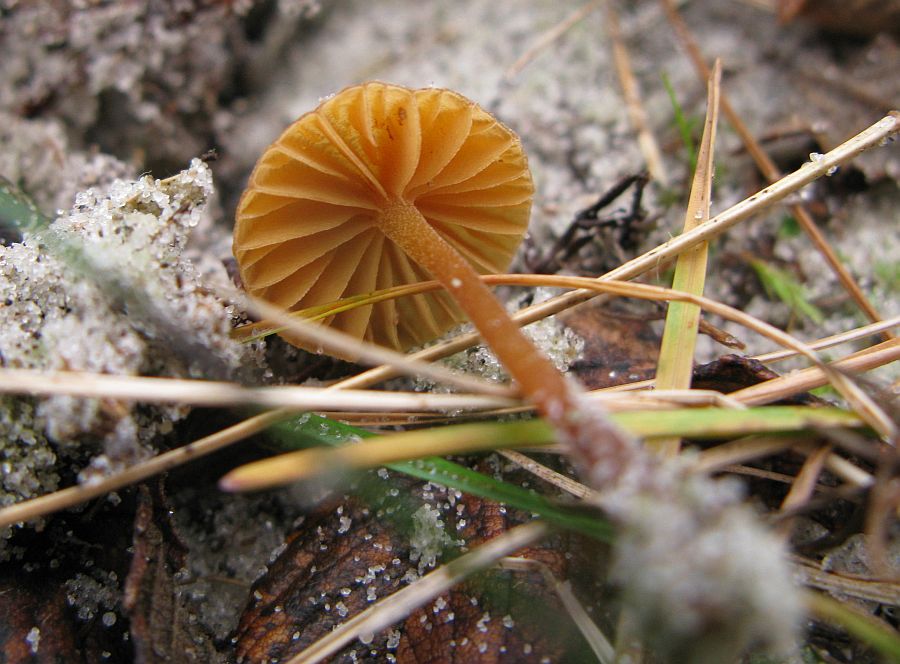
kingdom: Fungi
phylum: Basidiomycota
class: Agaricomycetes
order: Agaricales
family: Hymenogastraceae
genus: Galerina
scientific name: Galerina vittiformis
